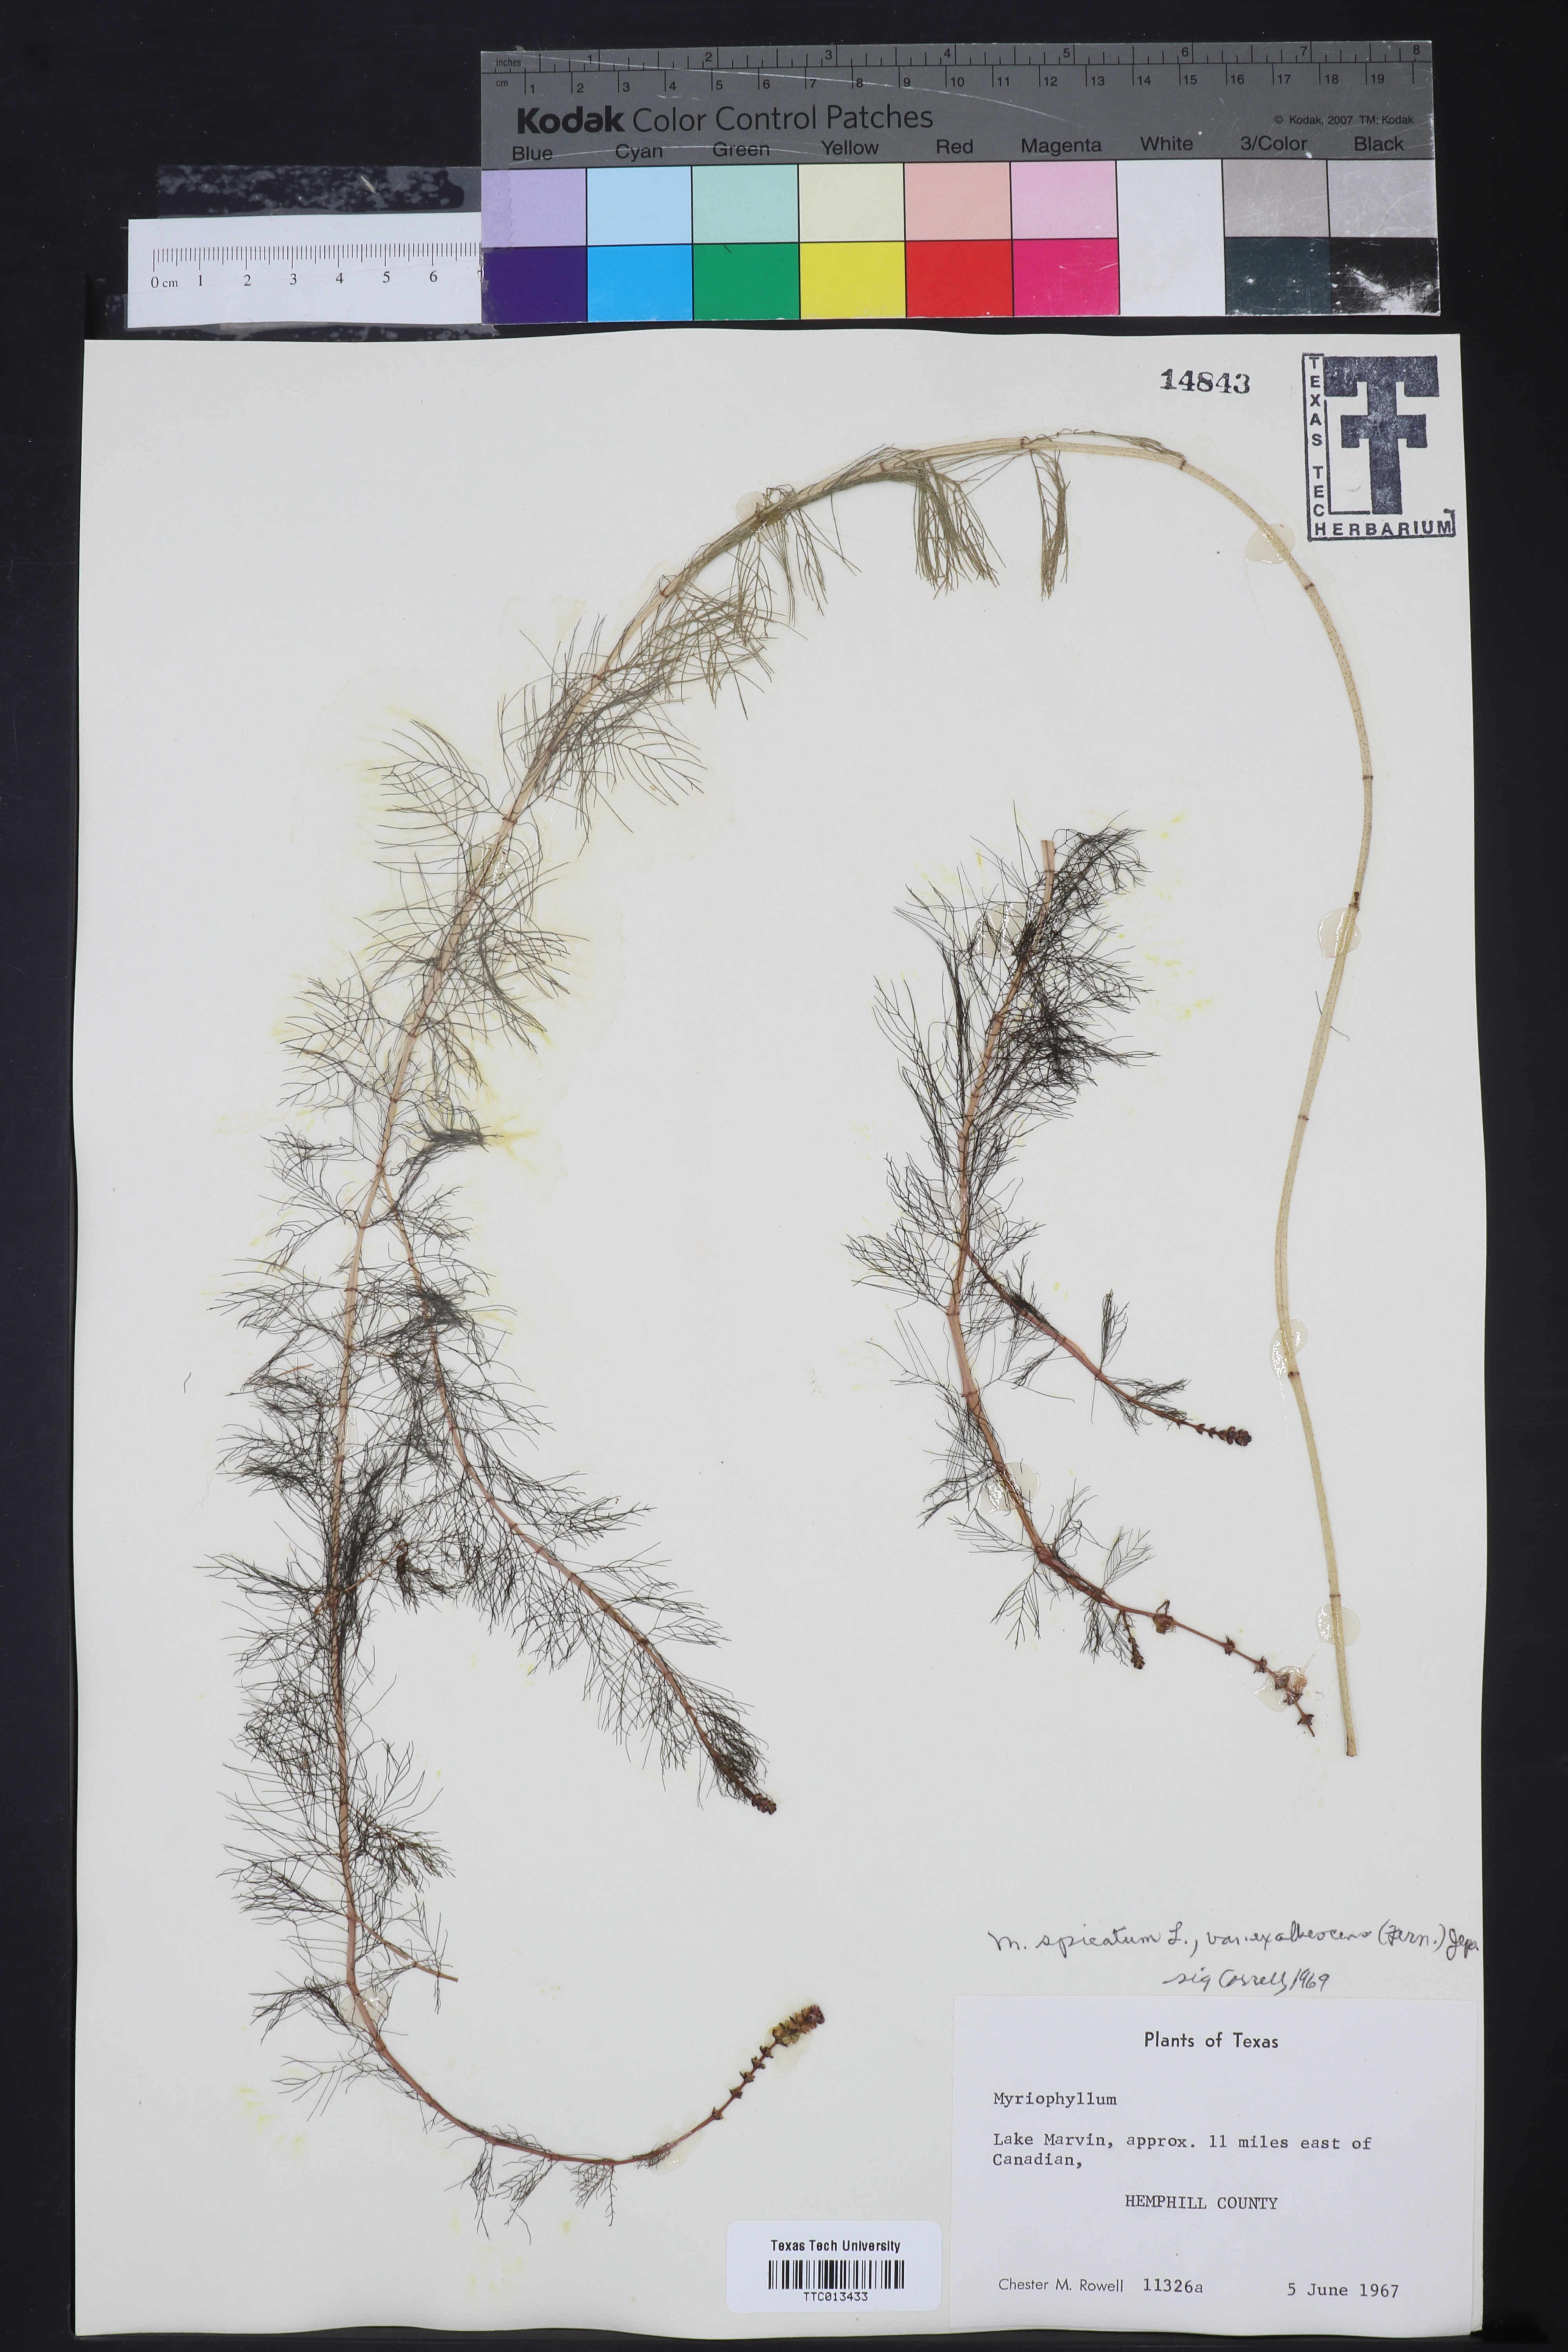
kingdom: Plantae
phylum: Tracheophyta
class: Magnoliopsida
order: Saxifragales
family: Haloragaceae
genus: Myriophyllum
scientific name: Myriophyllum sibiricum
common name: Siberian water-milfoil
